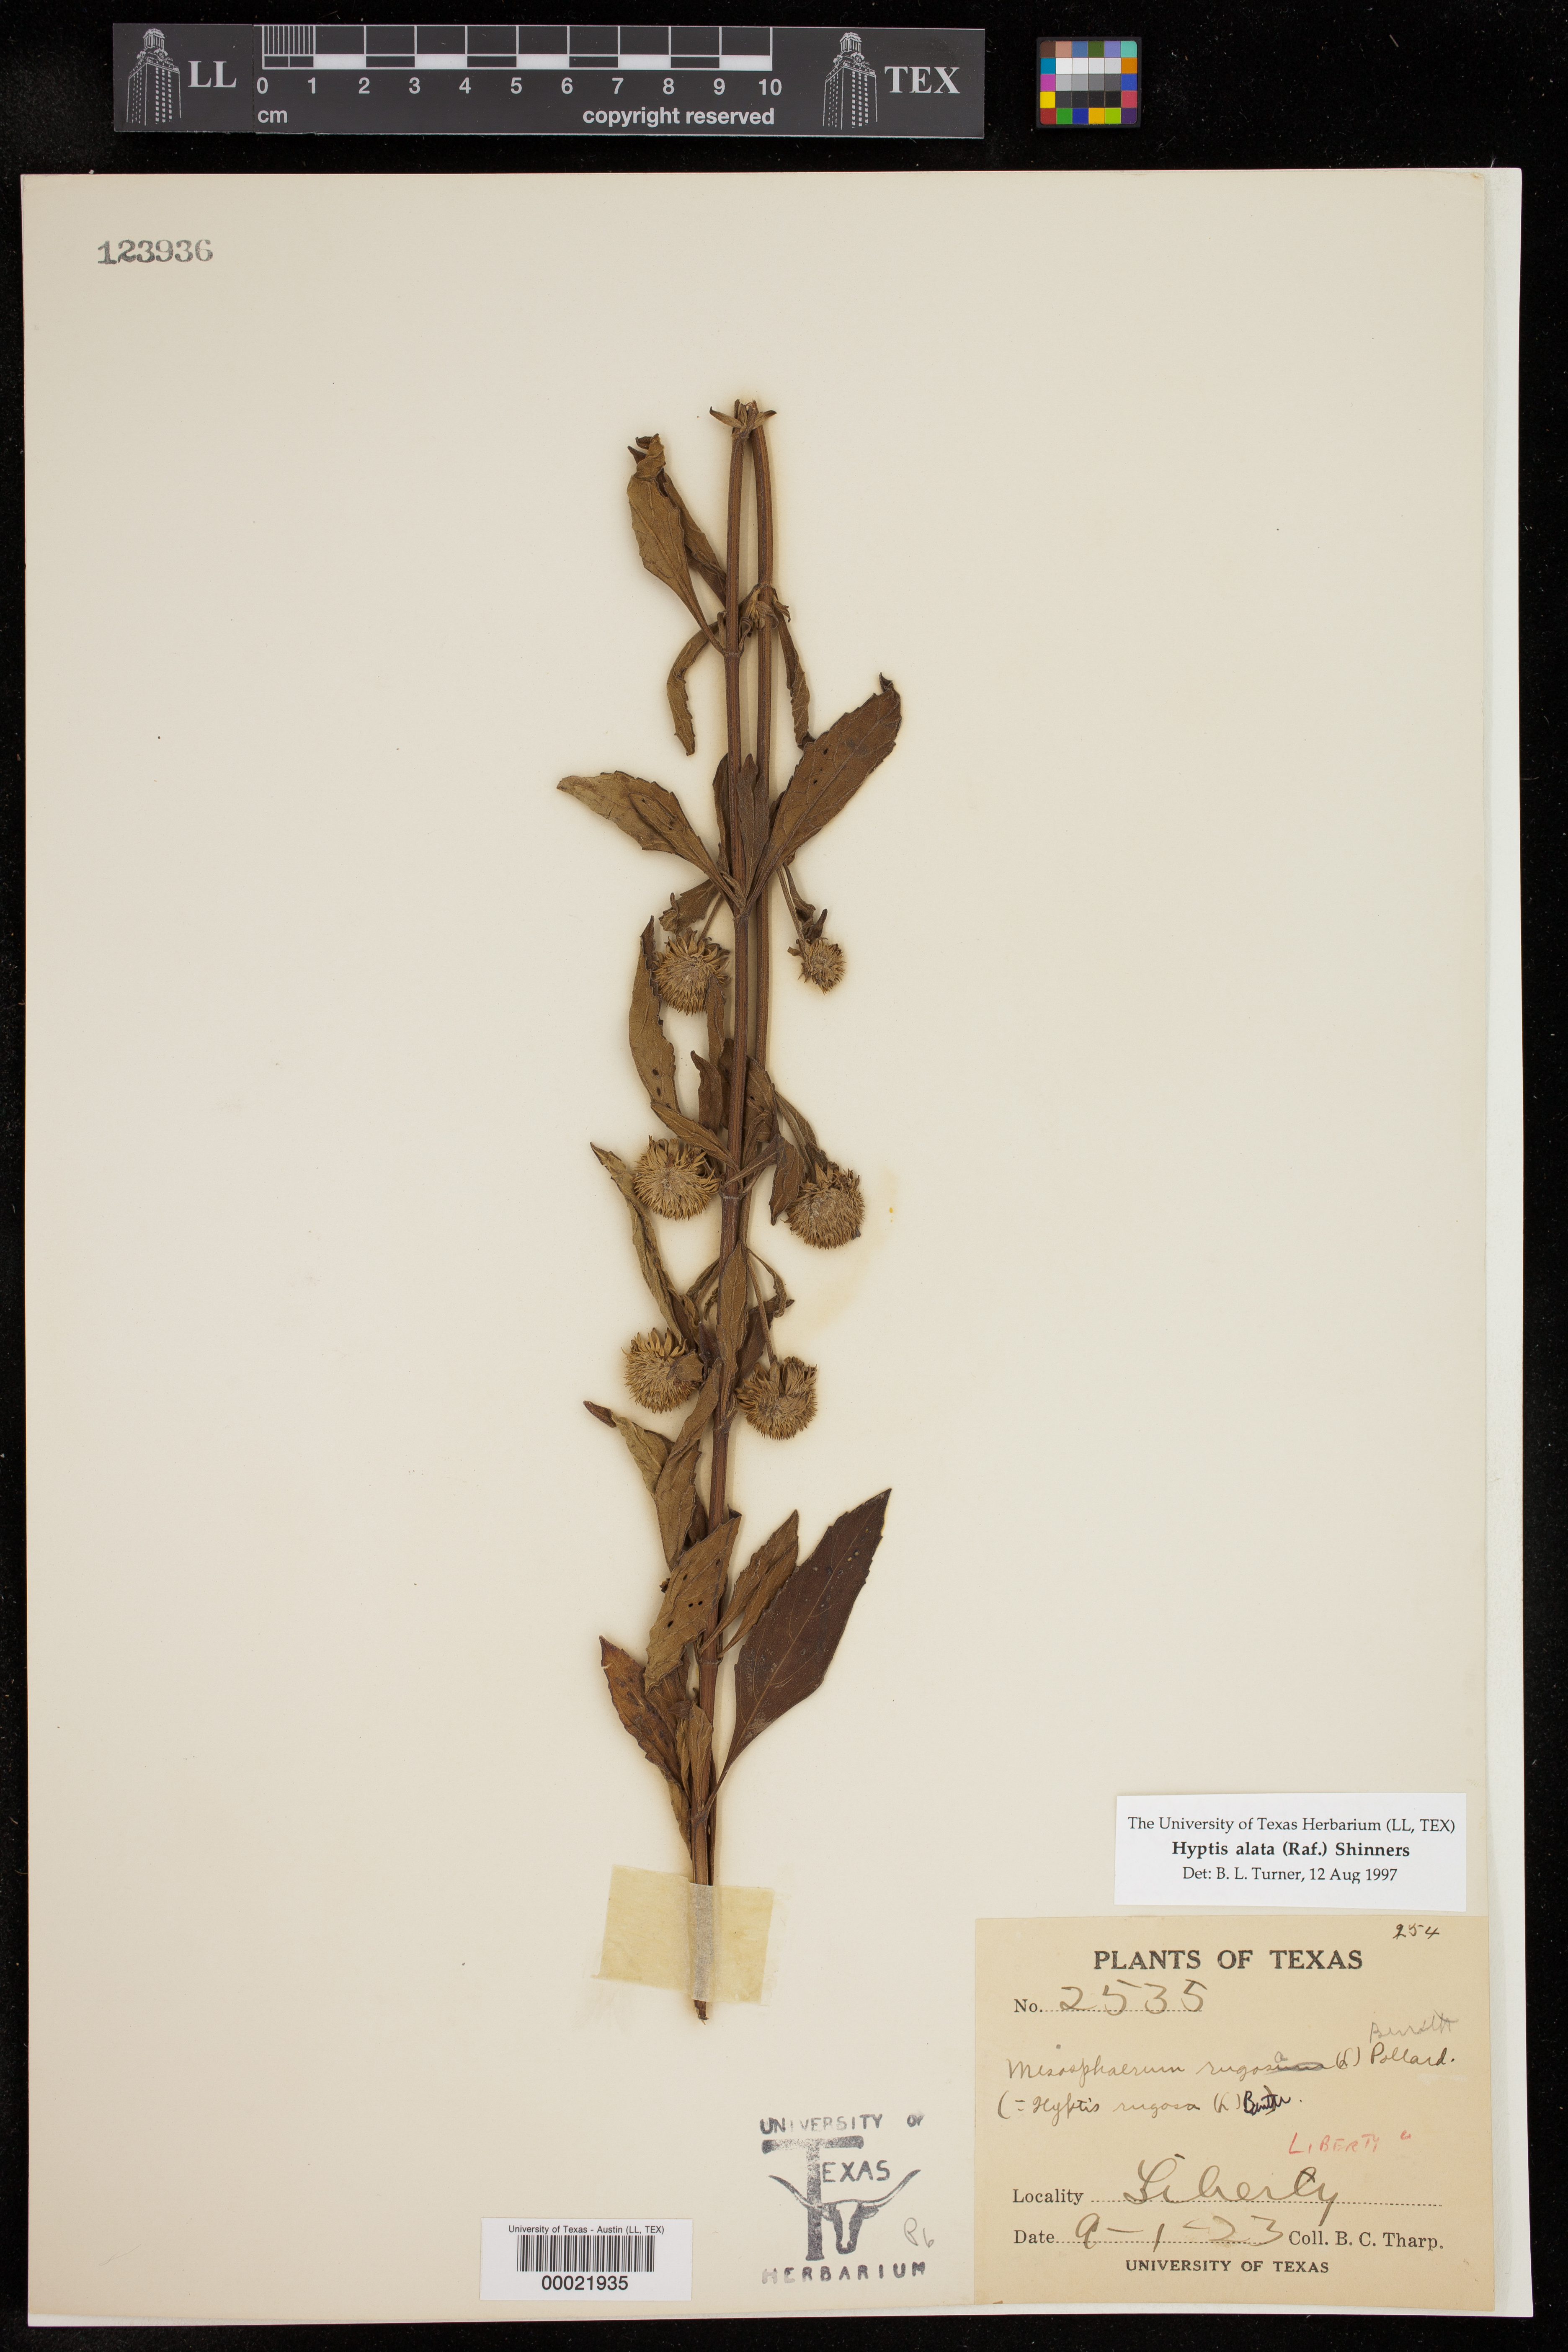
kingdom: Plantae
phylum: Tracheophyta
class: Magnoliopsida
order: Lamiales
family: Lamiaceae
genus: Hyptis
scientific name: Hyptis alata
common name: Cluster bush-mint
